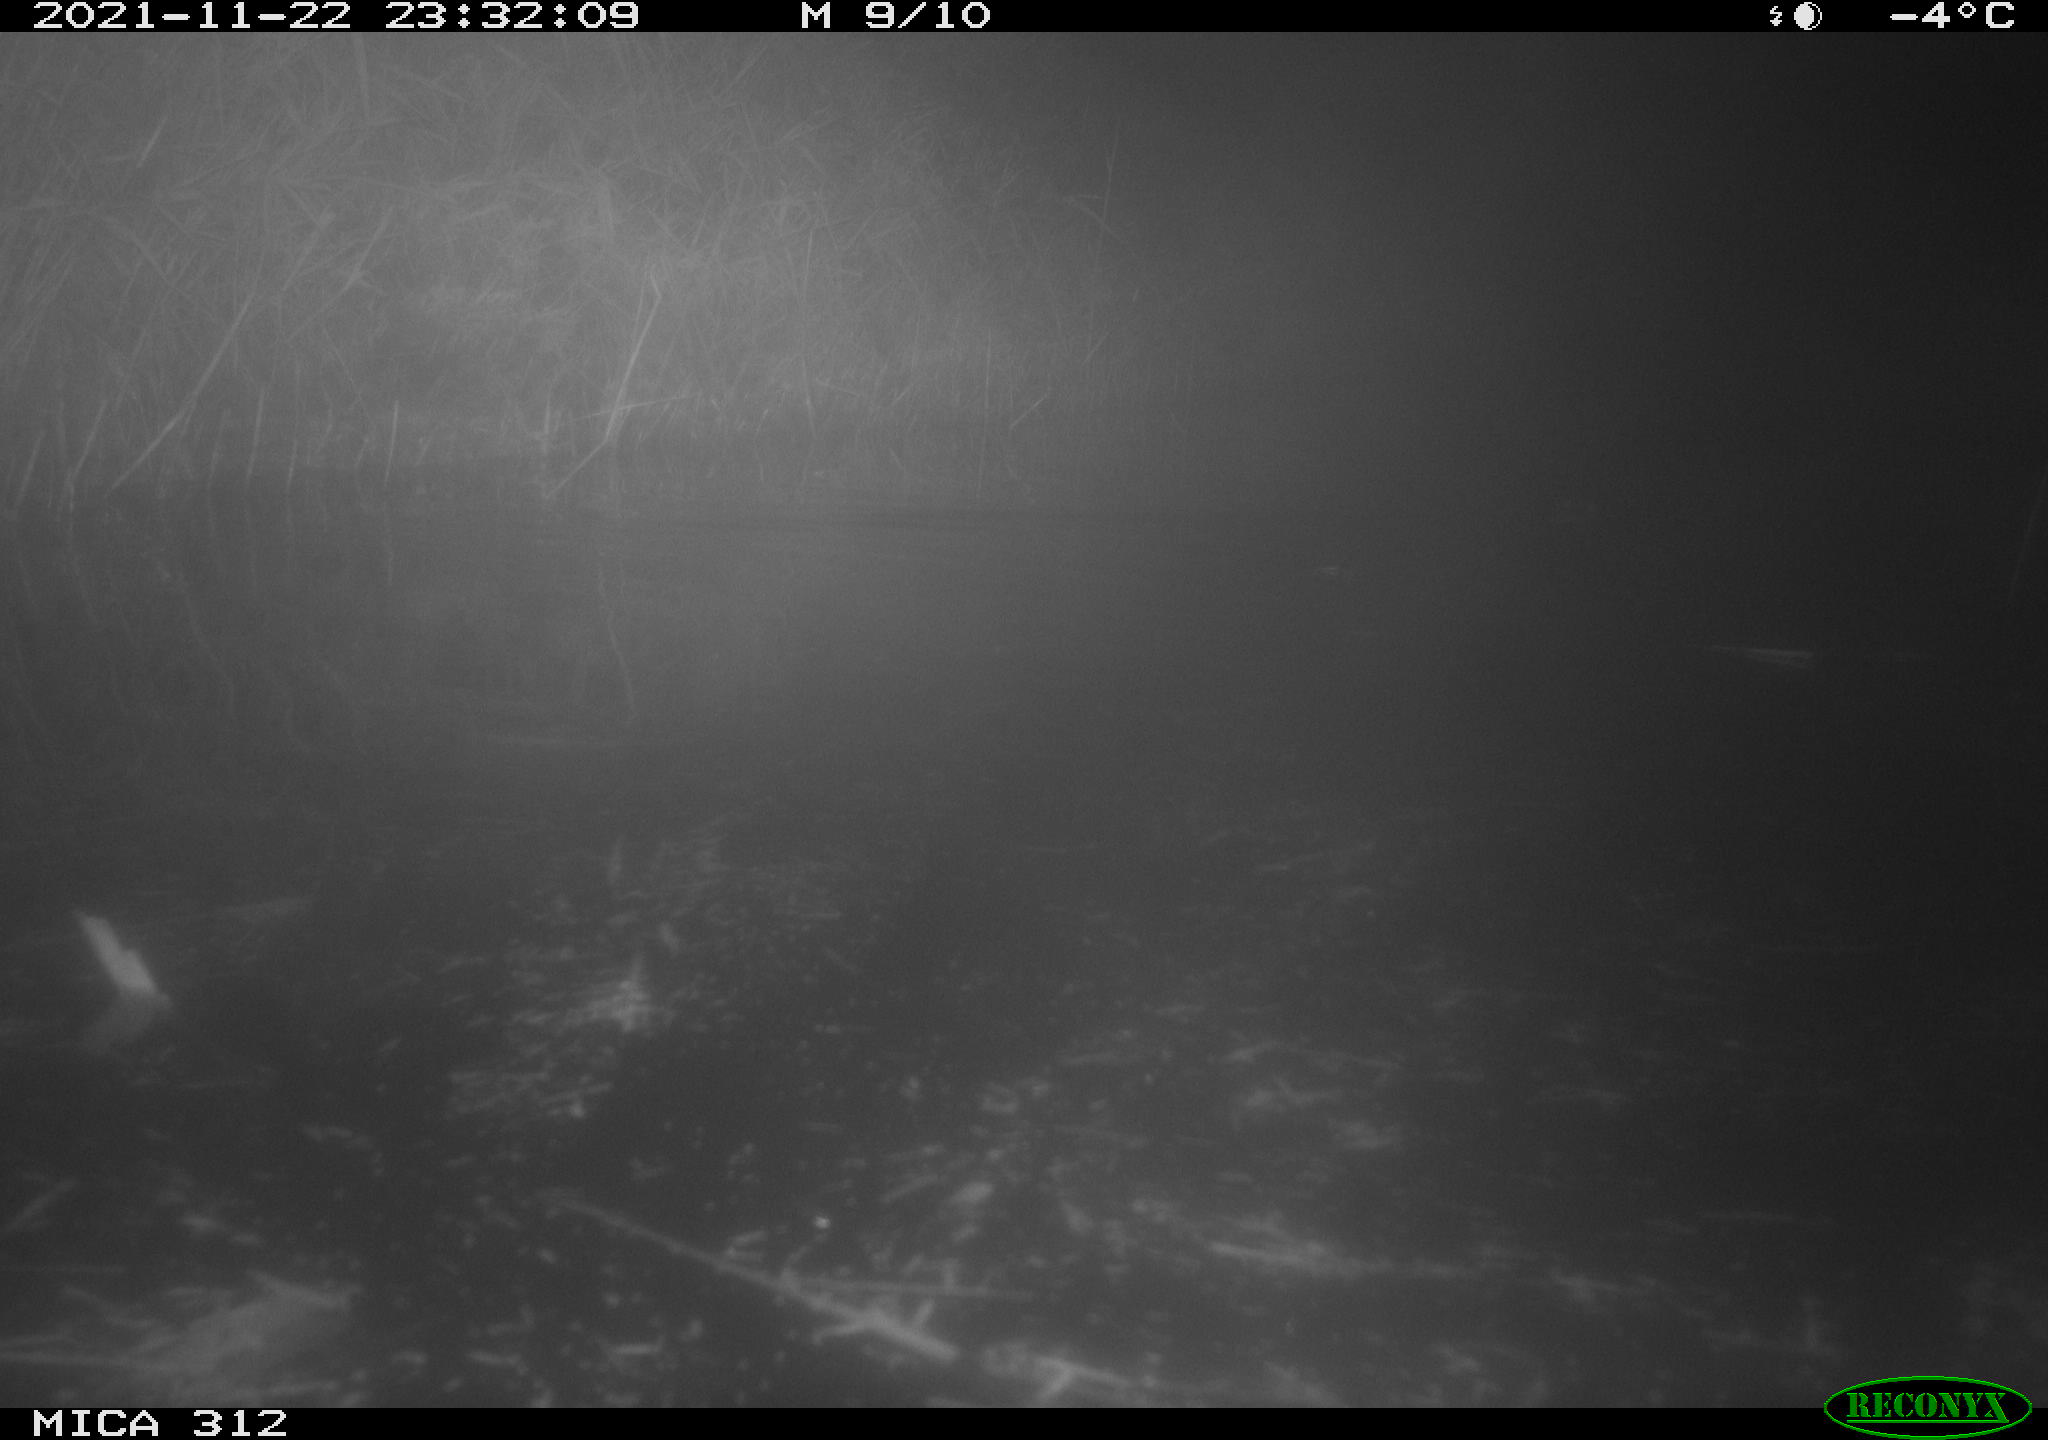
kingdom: Animalia
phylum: Chordata
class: Mammalia
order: Rodentia
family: Muridae
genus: Rattus
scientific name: Rattus norvegicus
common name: Brown rat
